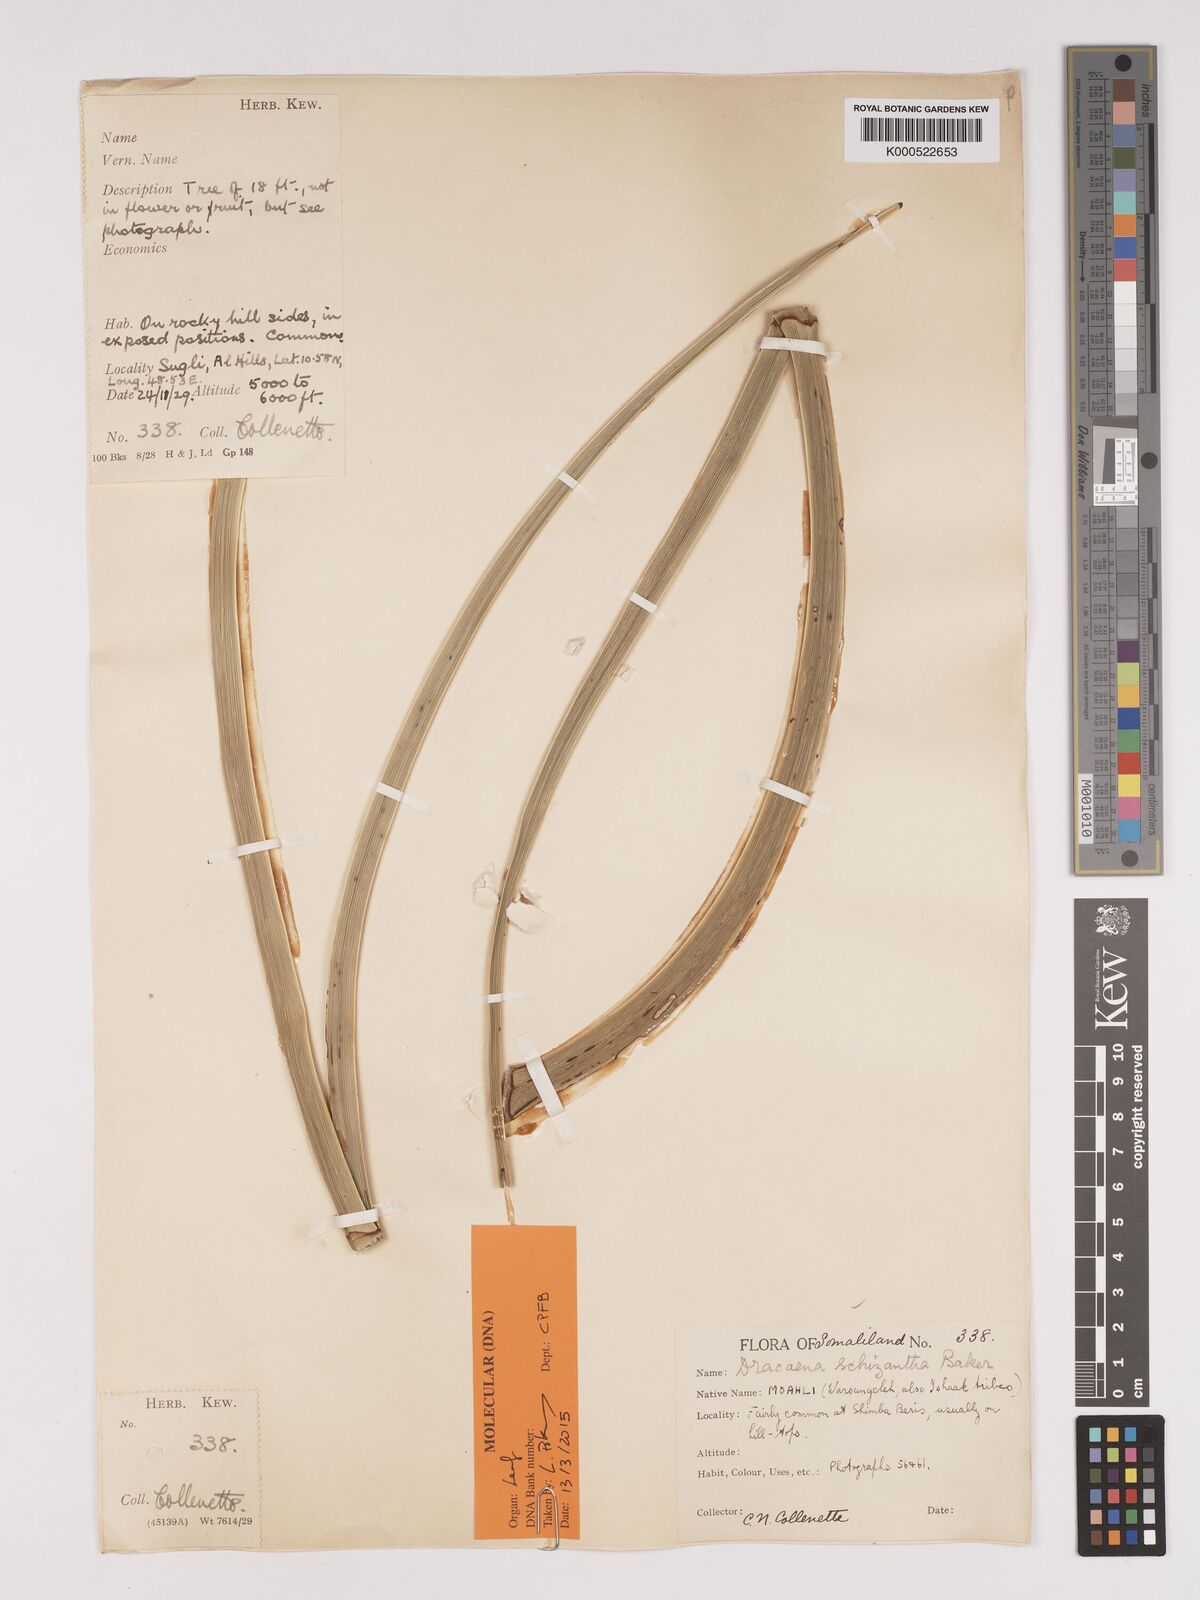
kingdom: Plantae
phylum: Tracheophyta
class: Liliopsida
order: Asparagales
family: Asparagaceae
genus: Dracaena
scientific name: Dracaena ombet
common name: Gabal elba dragon tree
